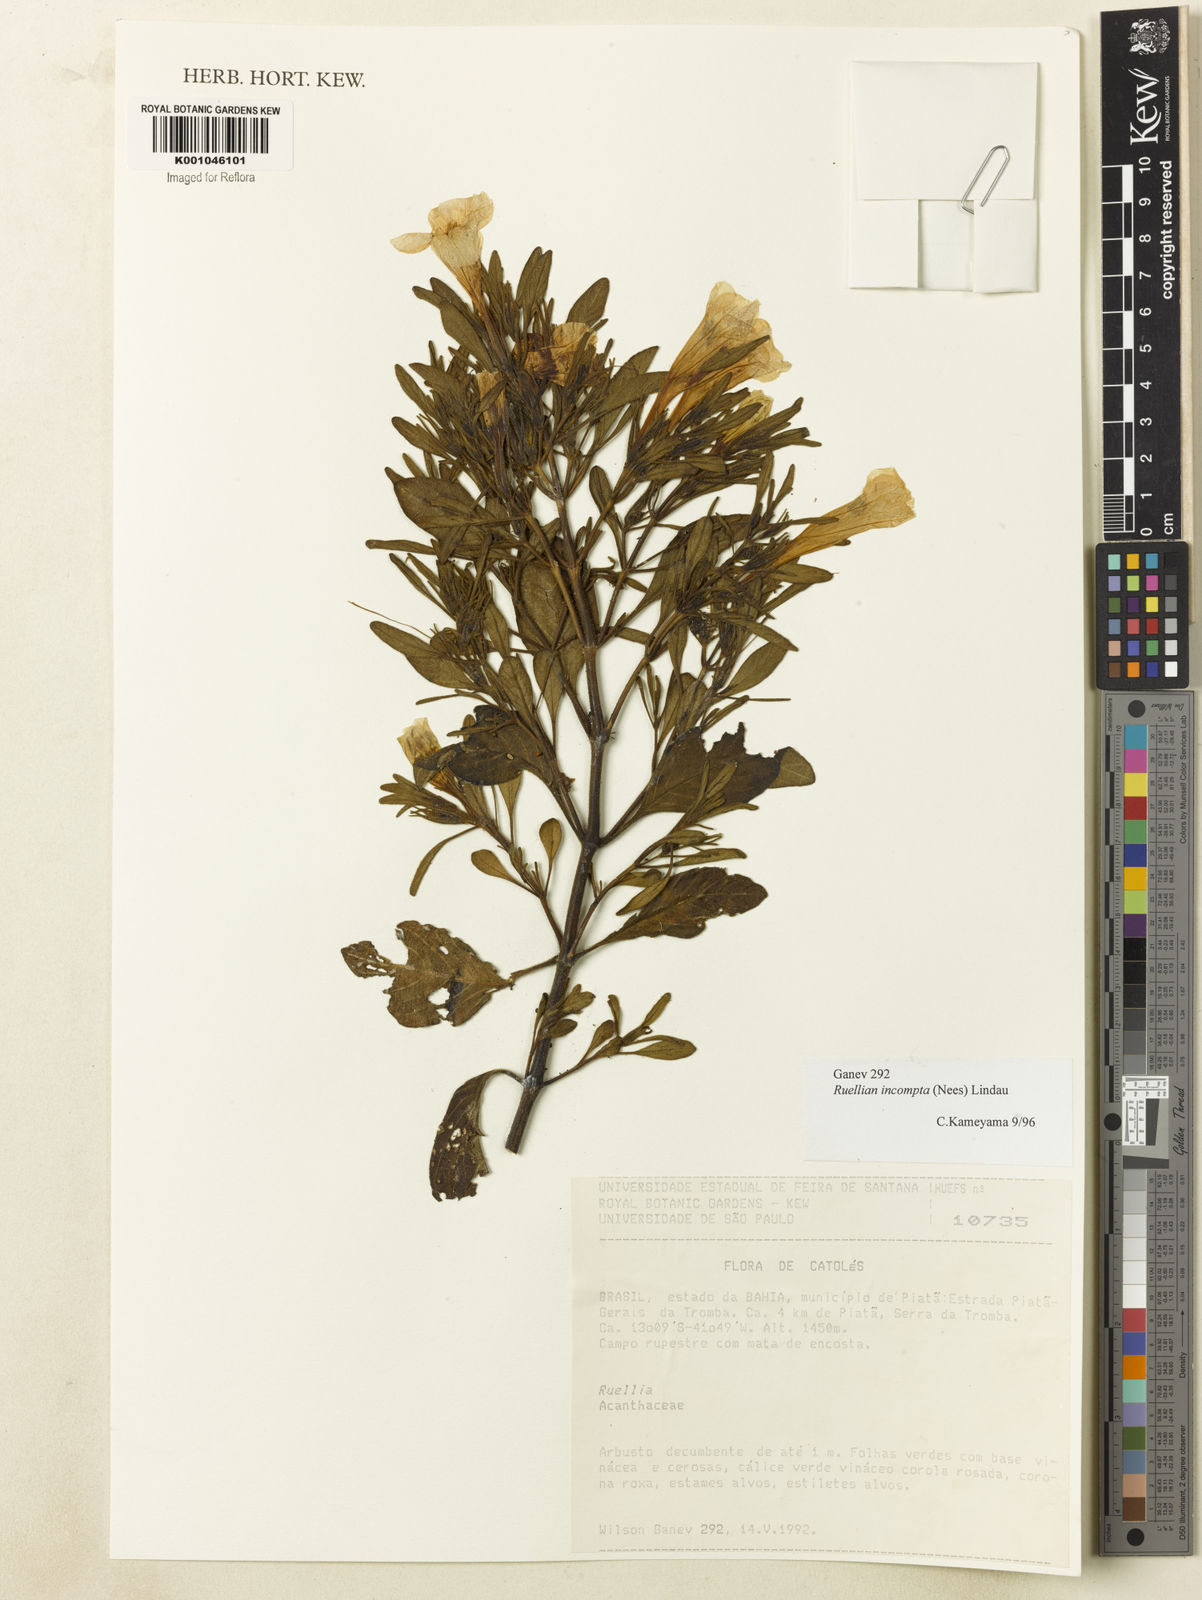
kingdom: Plantae
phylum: Tracheophyta
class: Magnoliopsida
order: Lamiales
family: Acanthaceae
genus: Ruellia
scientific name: Ruellia
